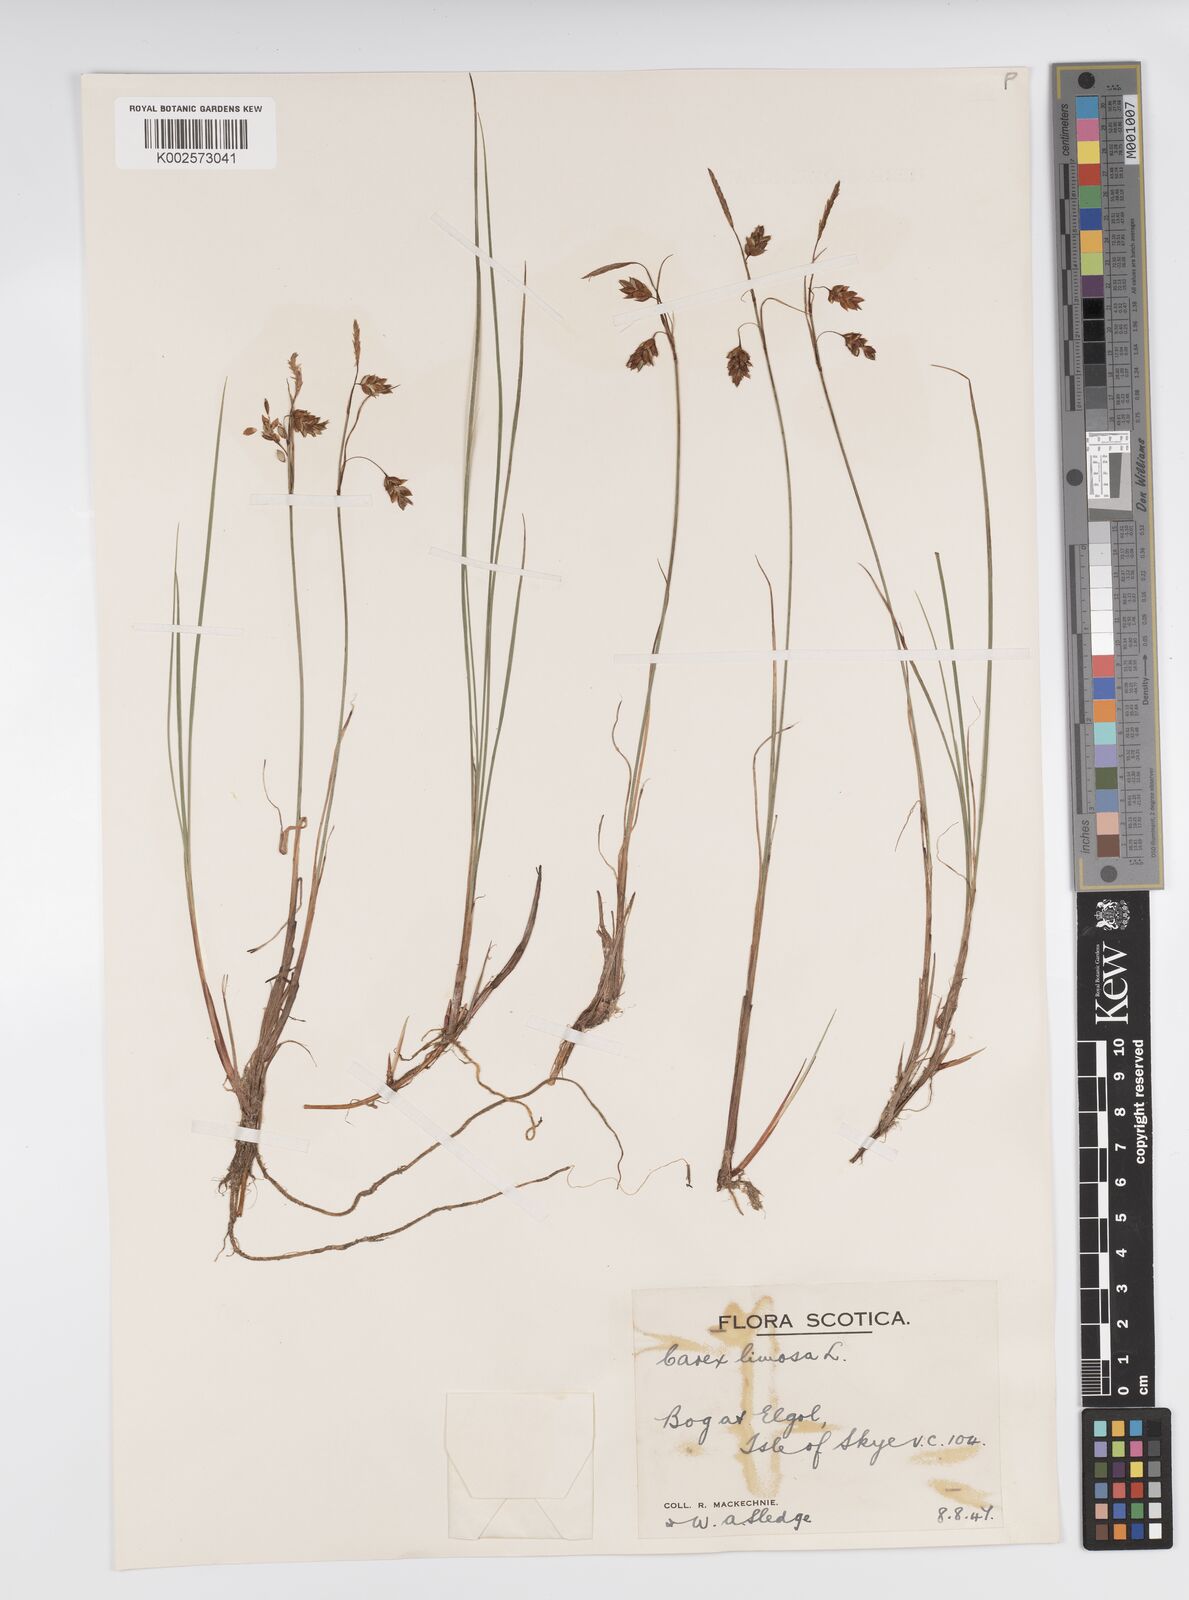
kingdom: Plantae
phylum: Tracheophyta
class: Liliopsida
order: Poales
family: Cyperaceae
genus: Carex
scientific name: Carex limosa
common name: Bog sedge
